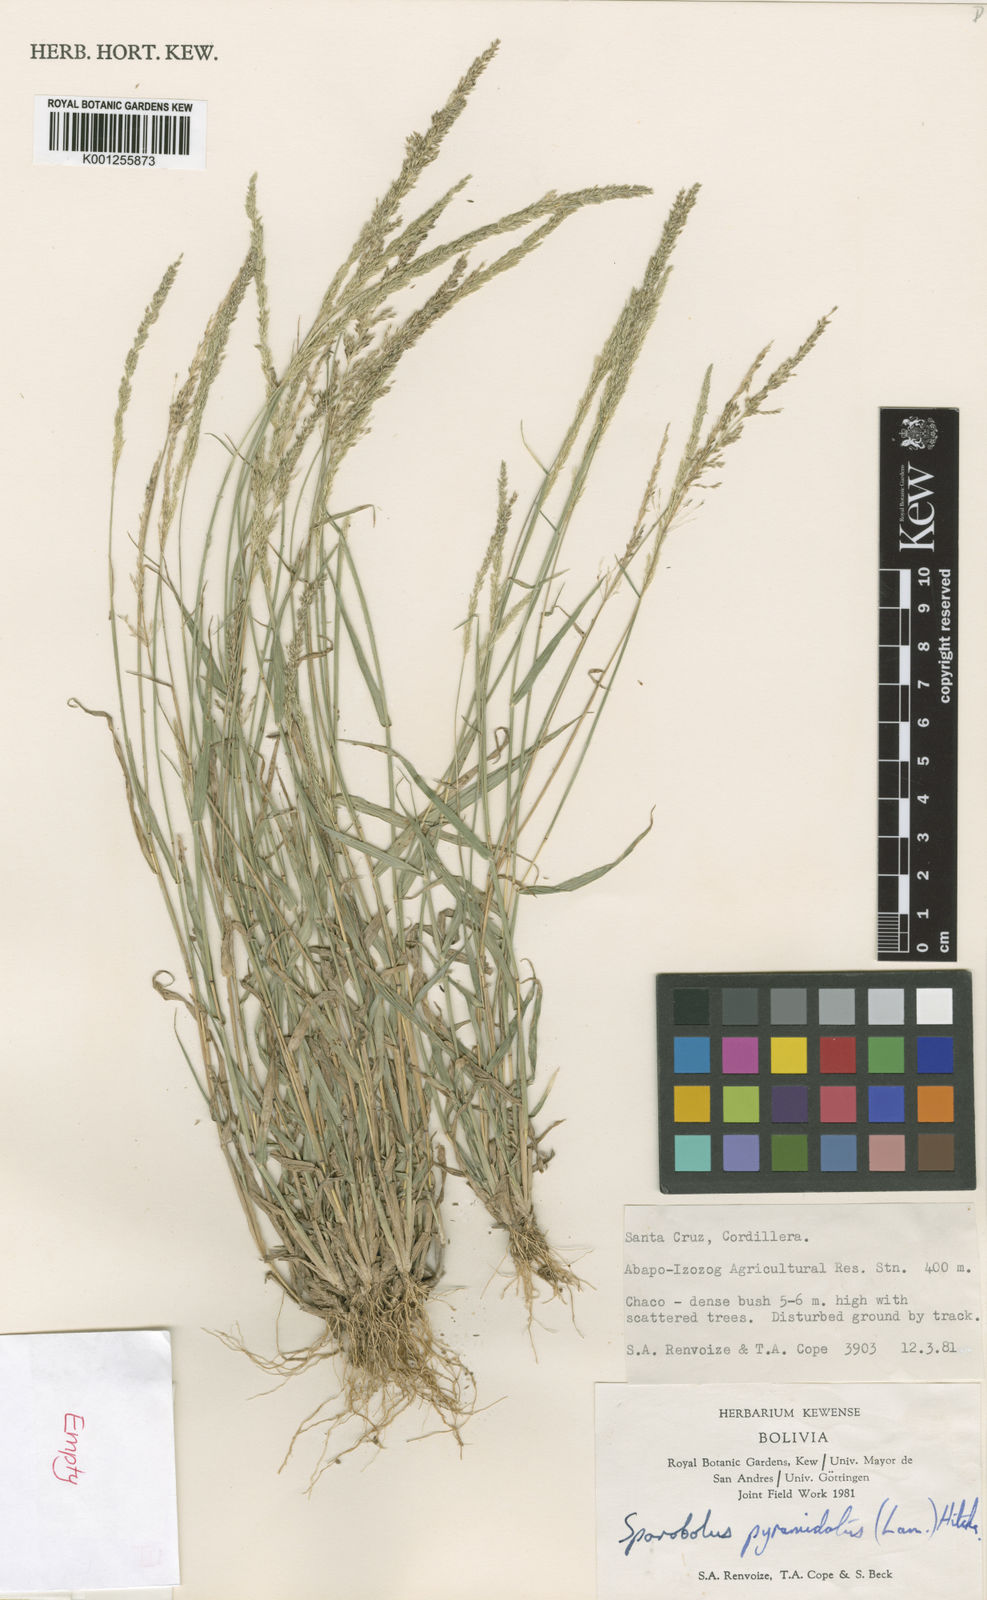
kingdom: Plantae
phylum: Tracheophyta
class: Liliopsida
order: Poales
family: Poaceae
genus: Sporobolus
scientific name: Sporobolus pyramidatus
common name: Whorled dropseed
